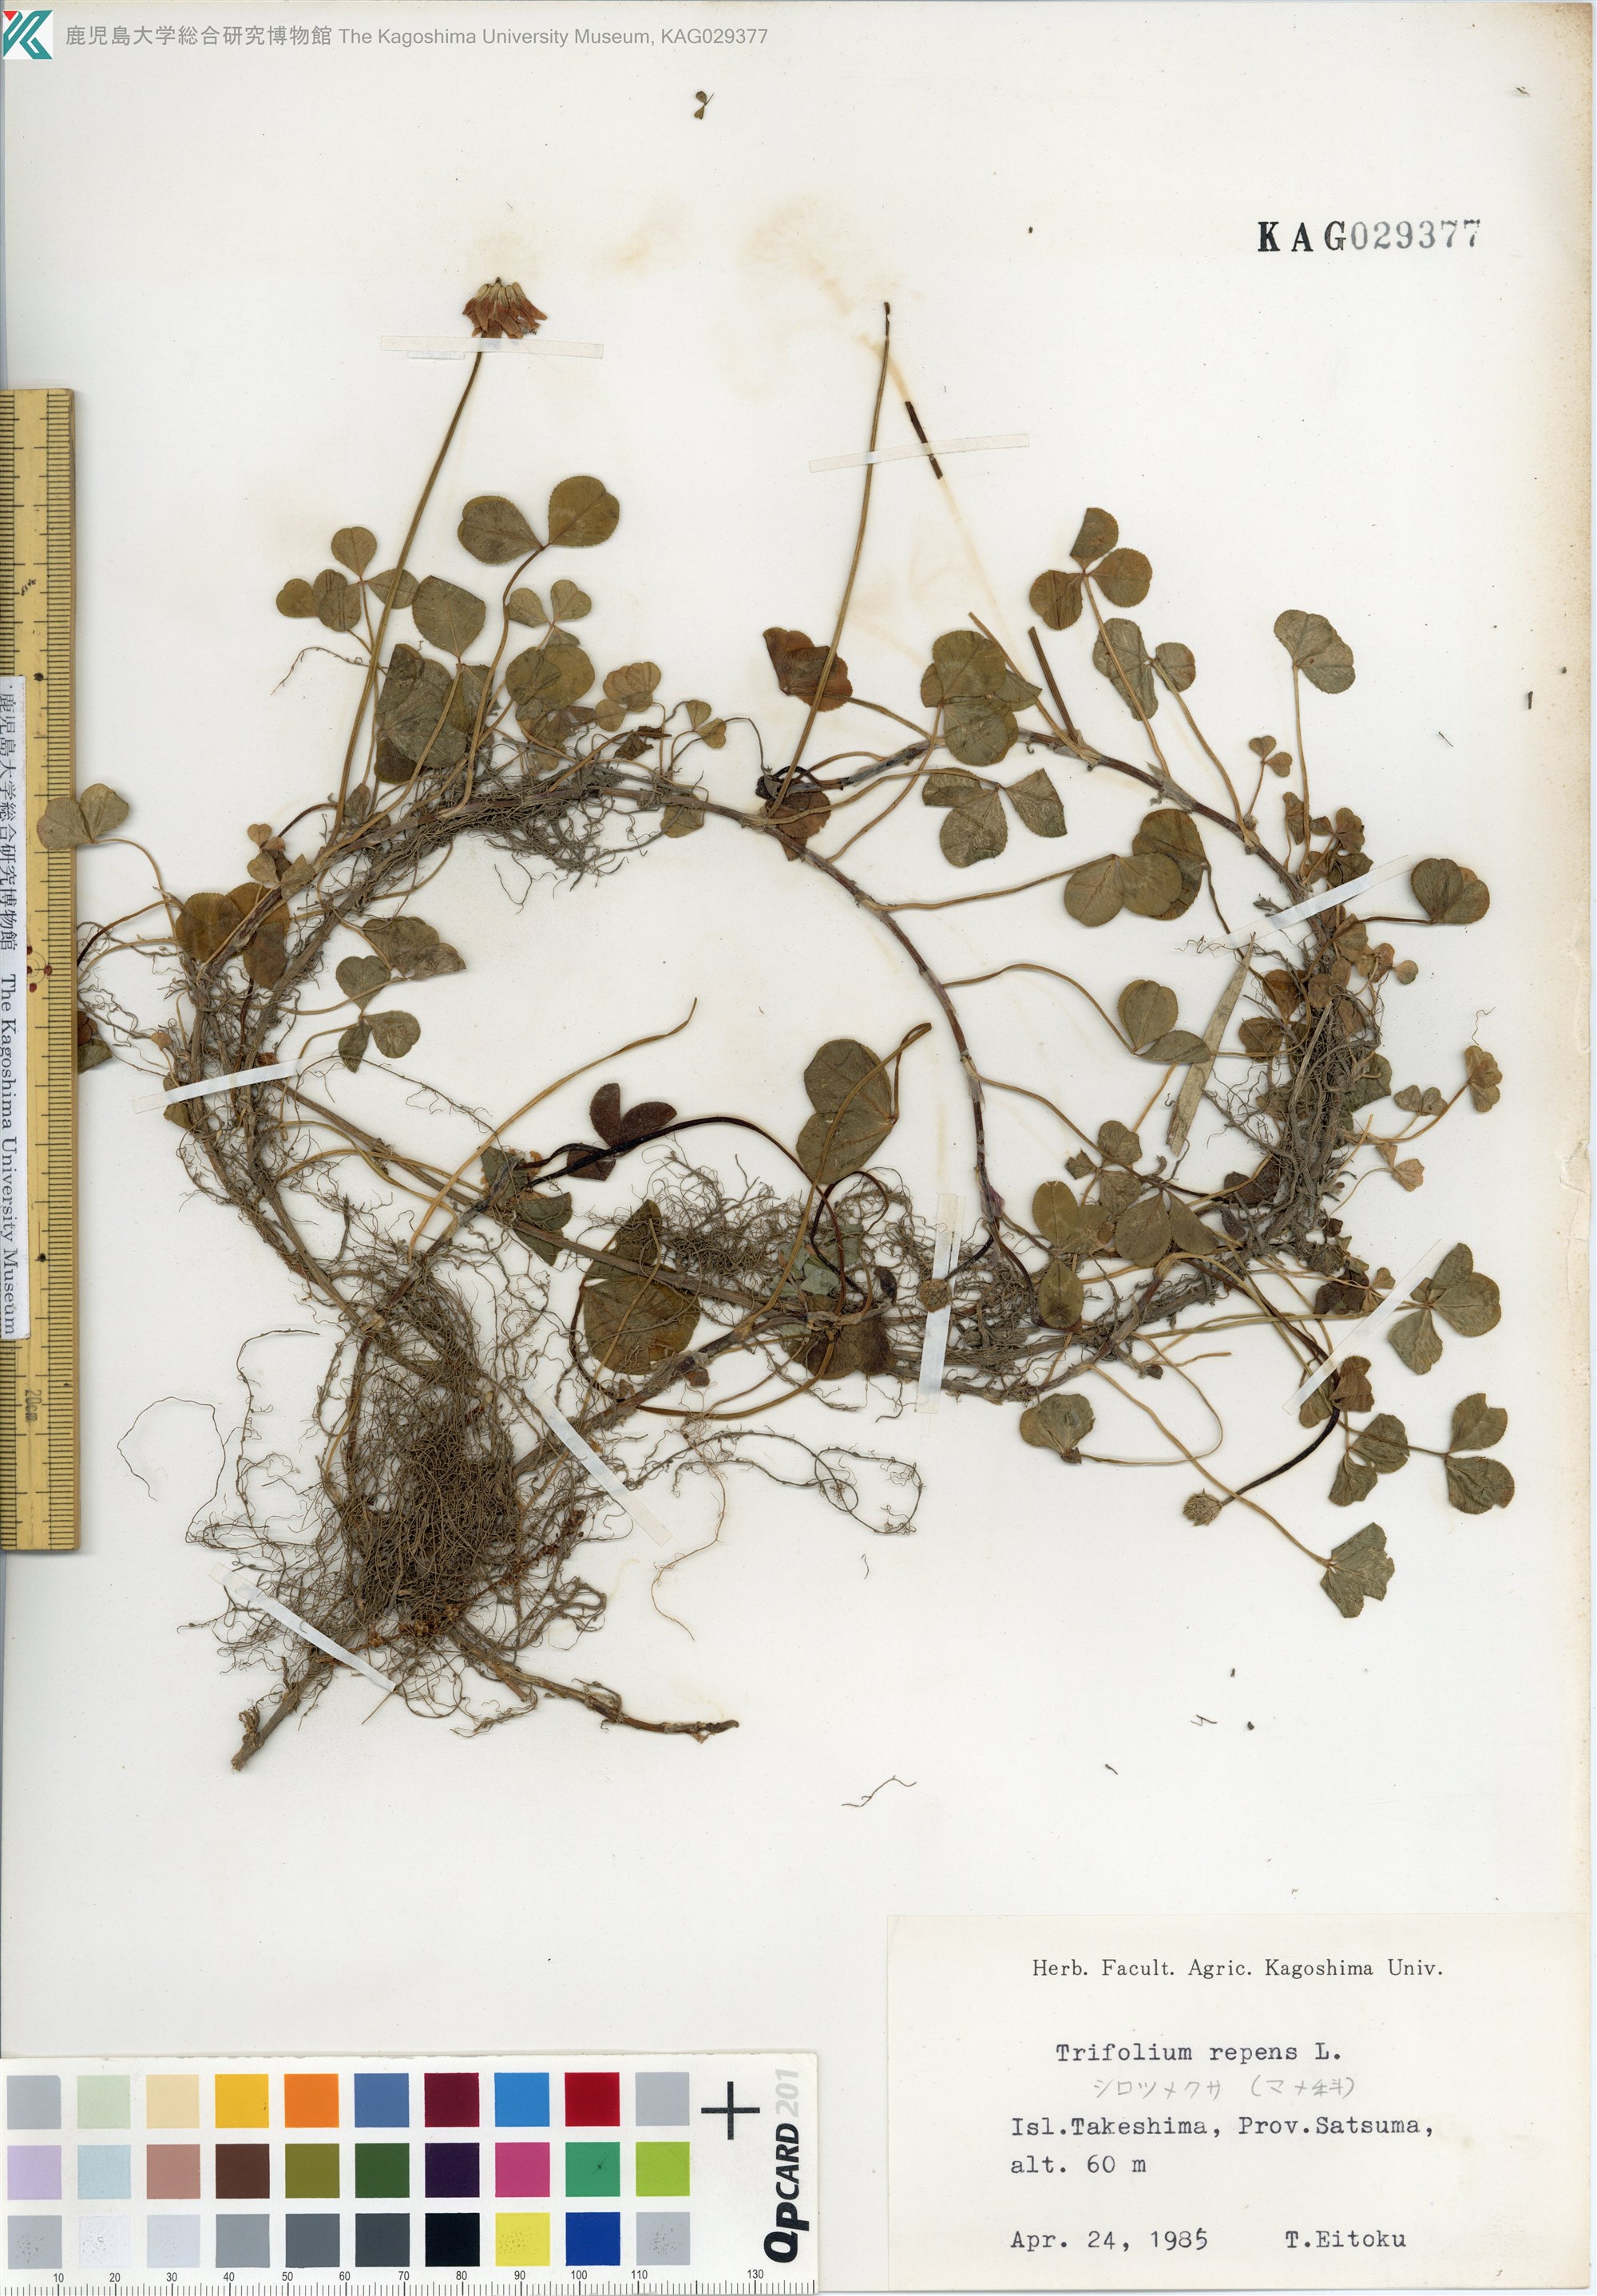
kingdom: Plantae
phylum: Tracheophyta
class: Magnoliopsida
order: Fabales
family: Fabaceae
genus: Trifolium
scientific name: Trifolium repens
